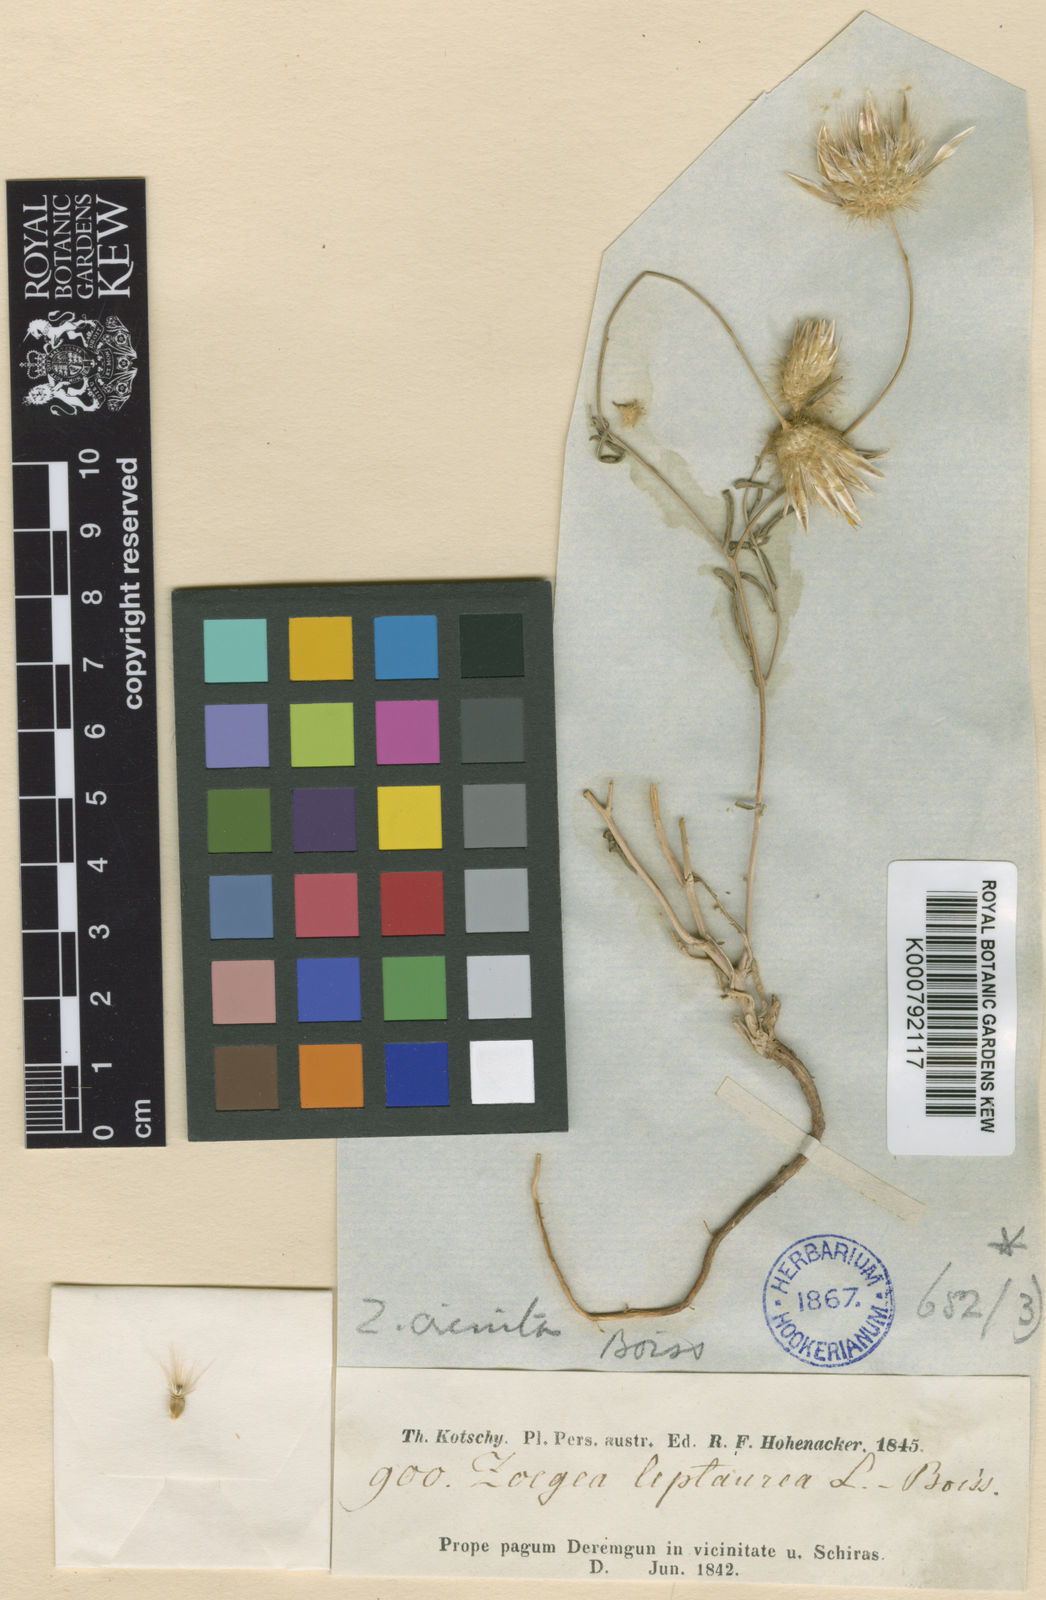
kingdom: Plantae
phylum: Tracheophyta
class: Magnoliopsida
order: Asterales
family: Asteraceae
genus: Zoegea
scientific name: Zoegea crinita
